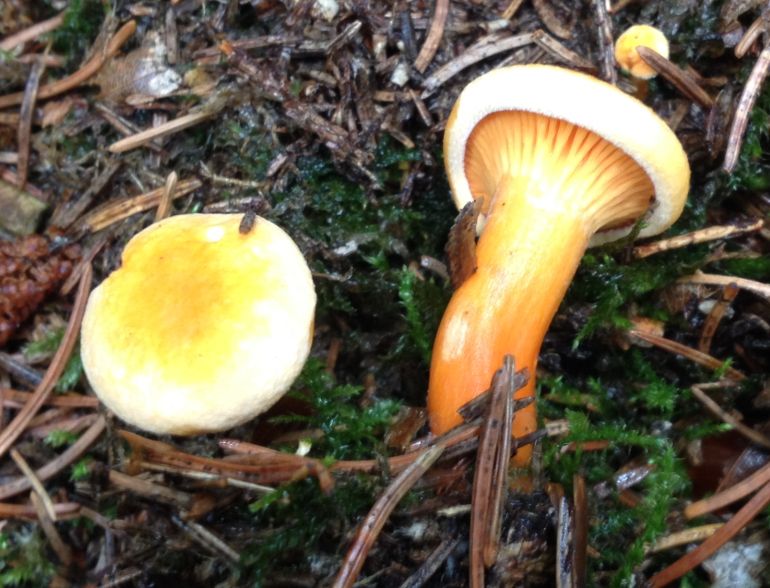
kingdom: Fungi
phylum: Basidiomycota
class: Agaricomycetes
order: Cantharellales
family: Hydnaceae
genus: Cantharellus
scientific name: Cantharellus cibarius
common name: almindelig kantarel
